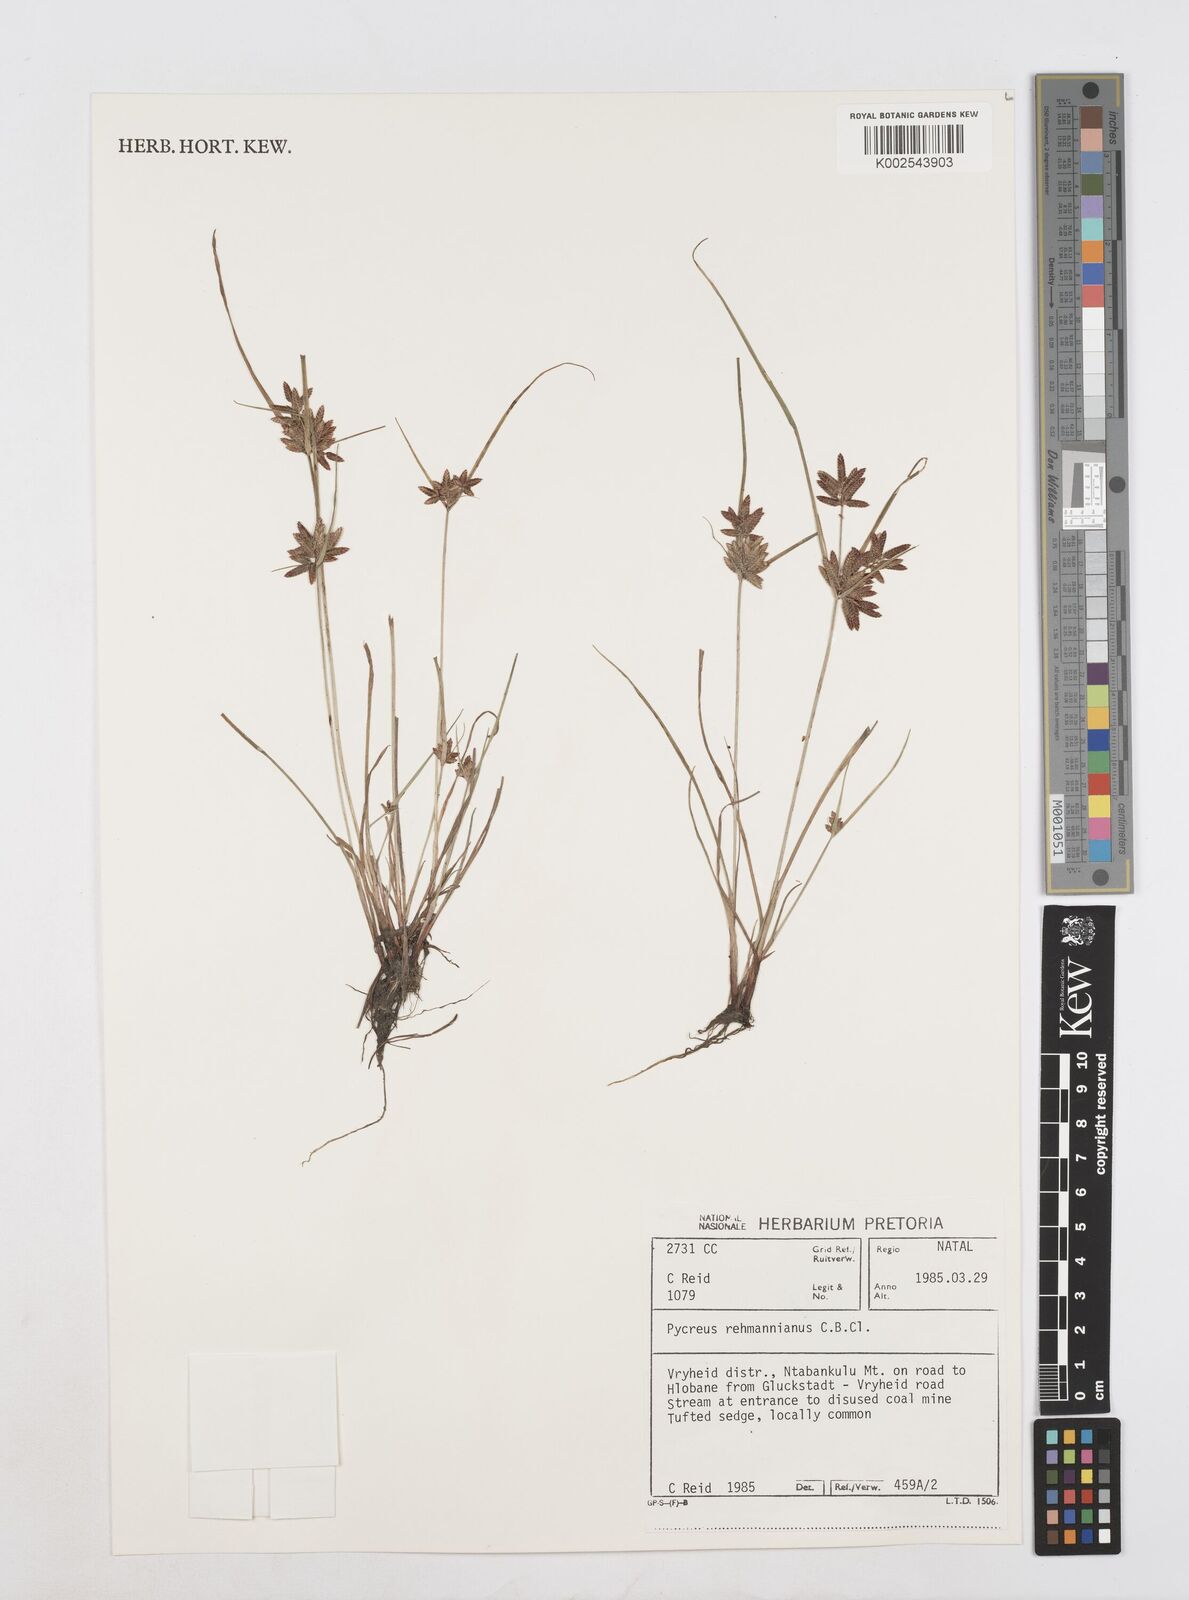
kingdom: Plantae
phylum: Tracheophyta
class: Liliopsida
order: Poales
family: Cyperaceae
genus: Cyperus
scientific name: Cyperus flavescens
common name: Yellow galingale
